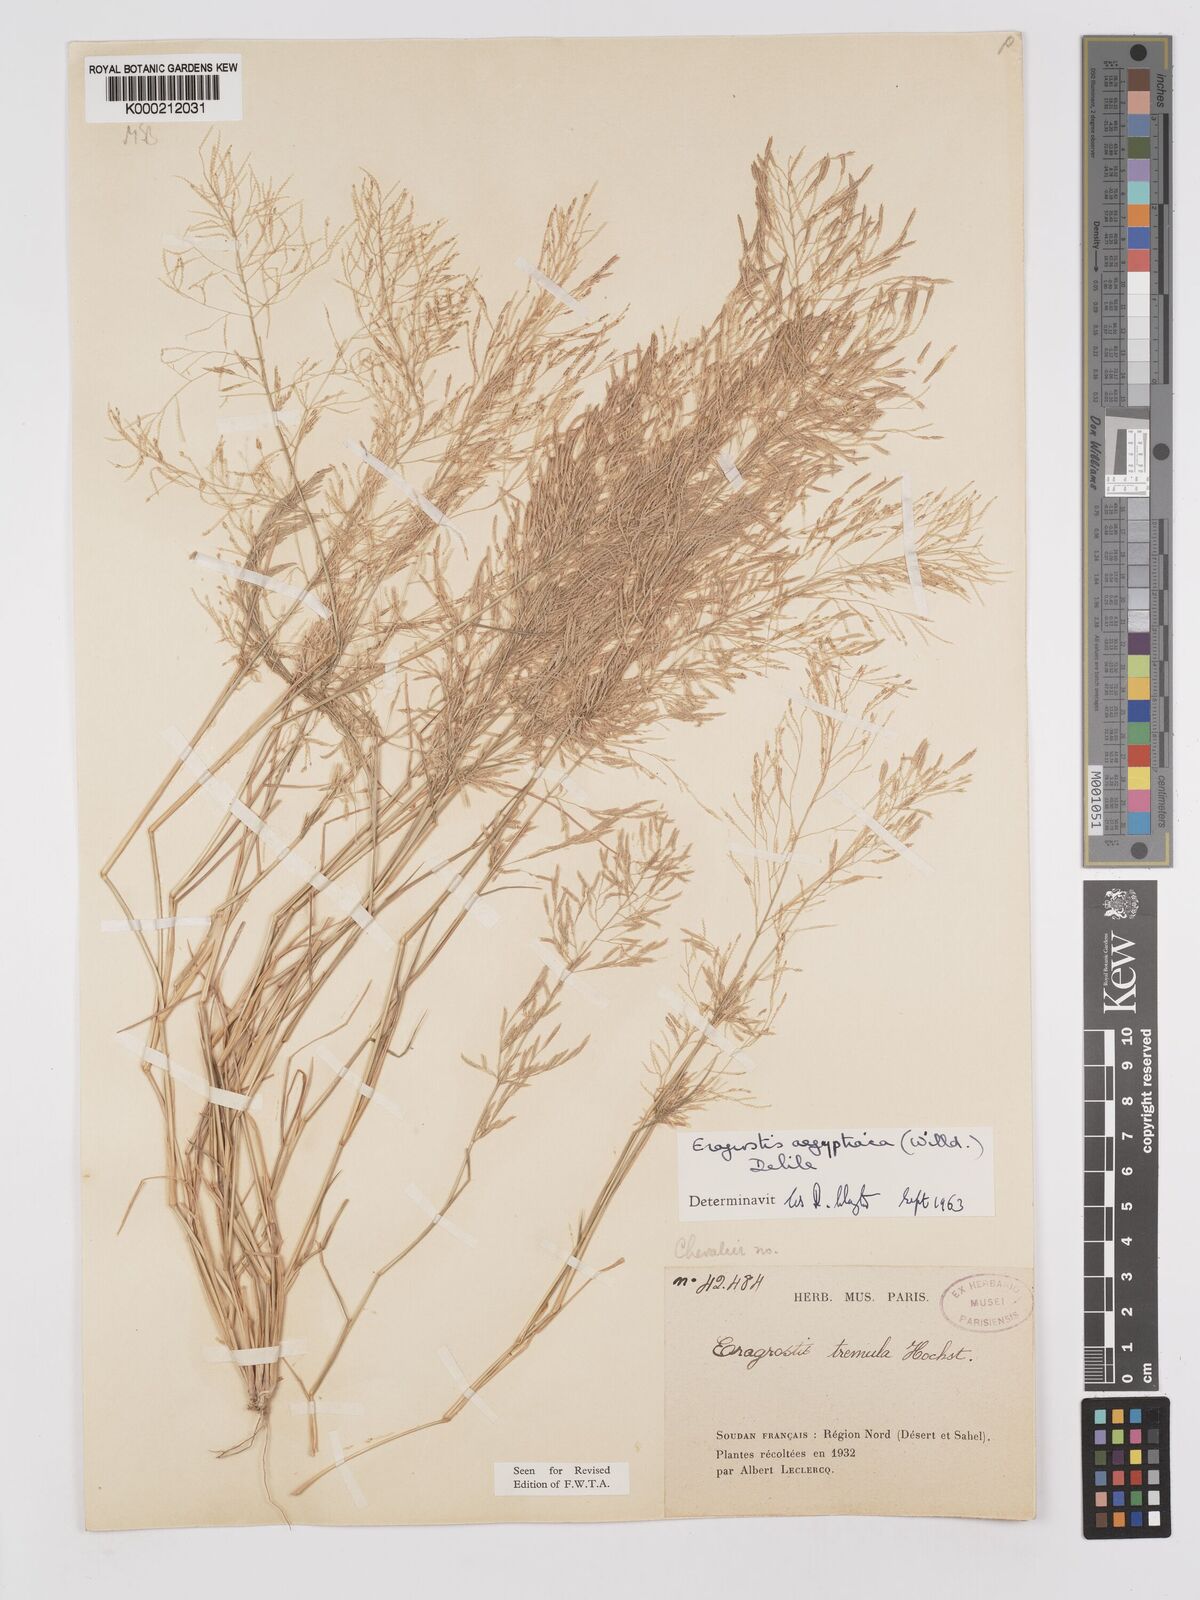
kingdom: Plantae
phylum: Tracheophyta
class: Liliopsida
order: Poales
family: Poaceae
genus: Eragrostis
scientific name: Eragrostis aegyptiaca
